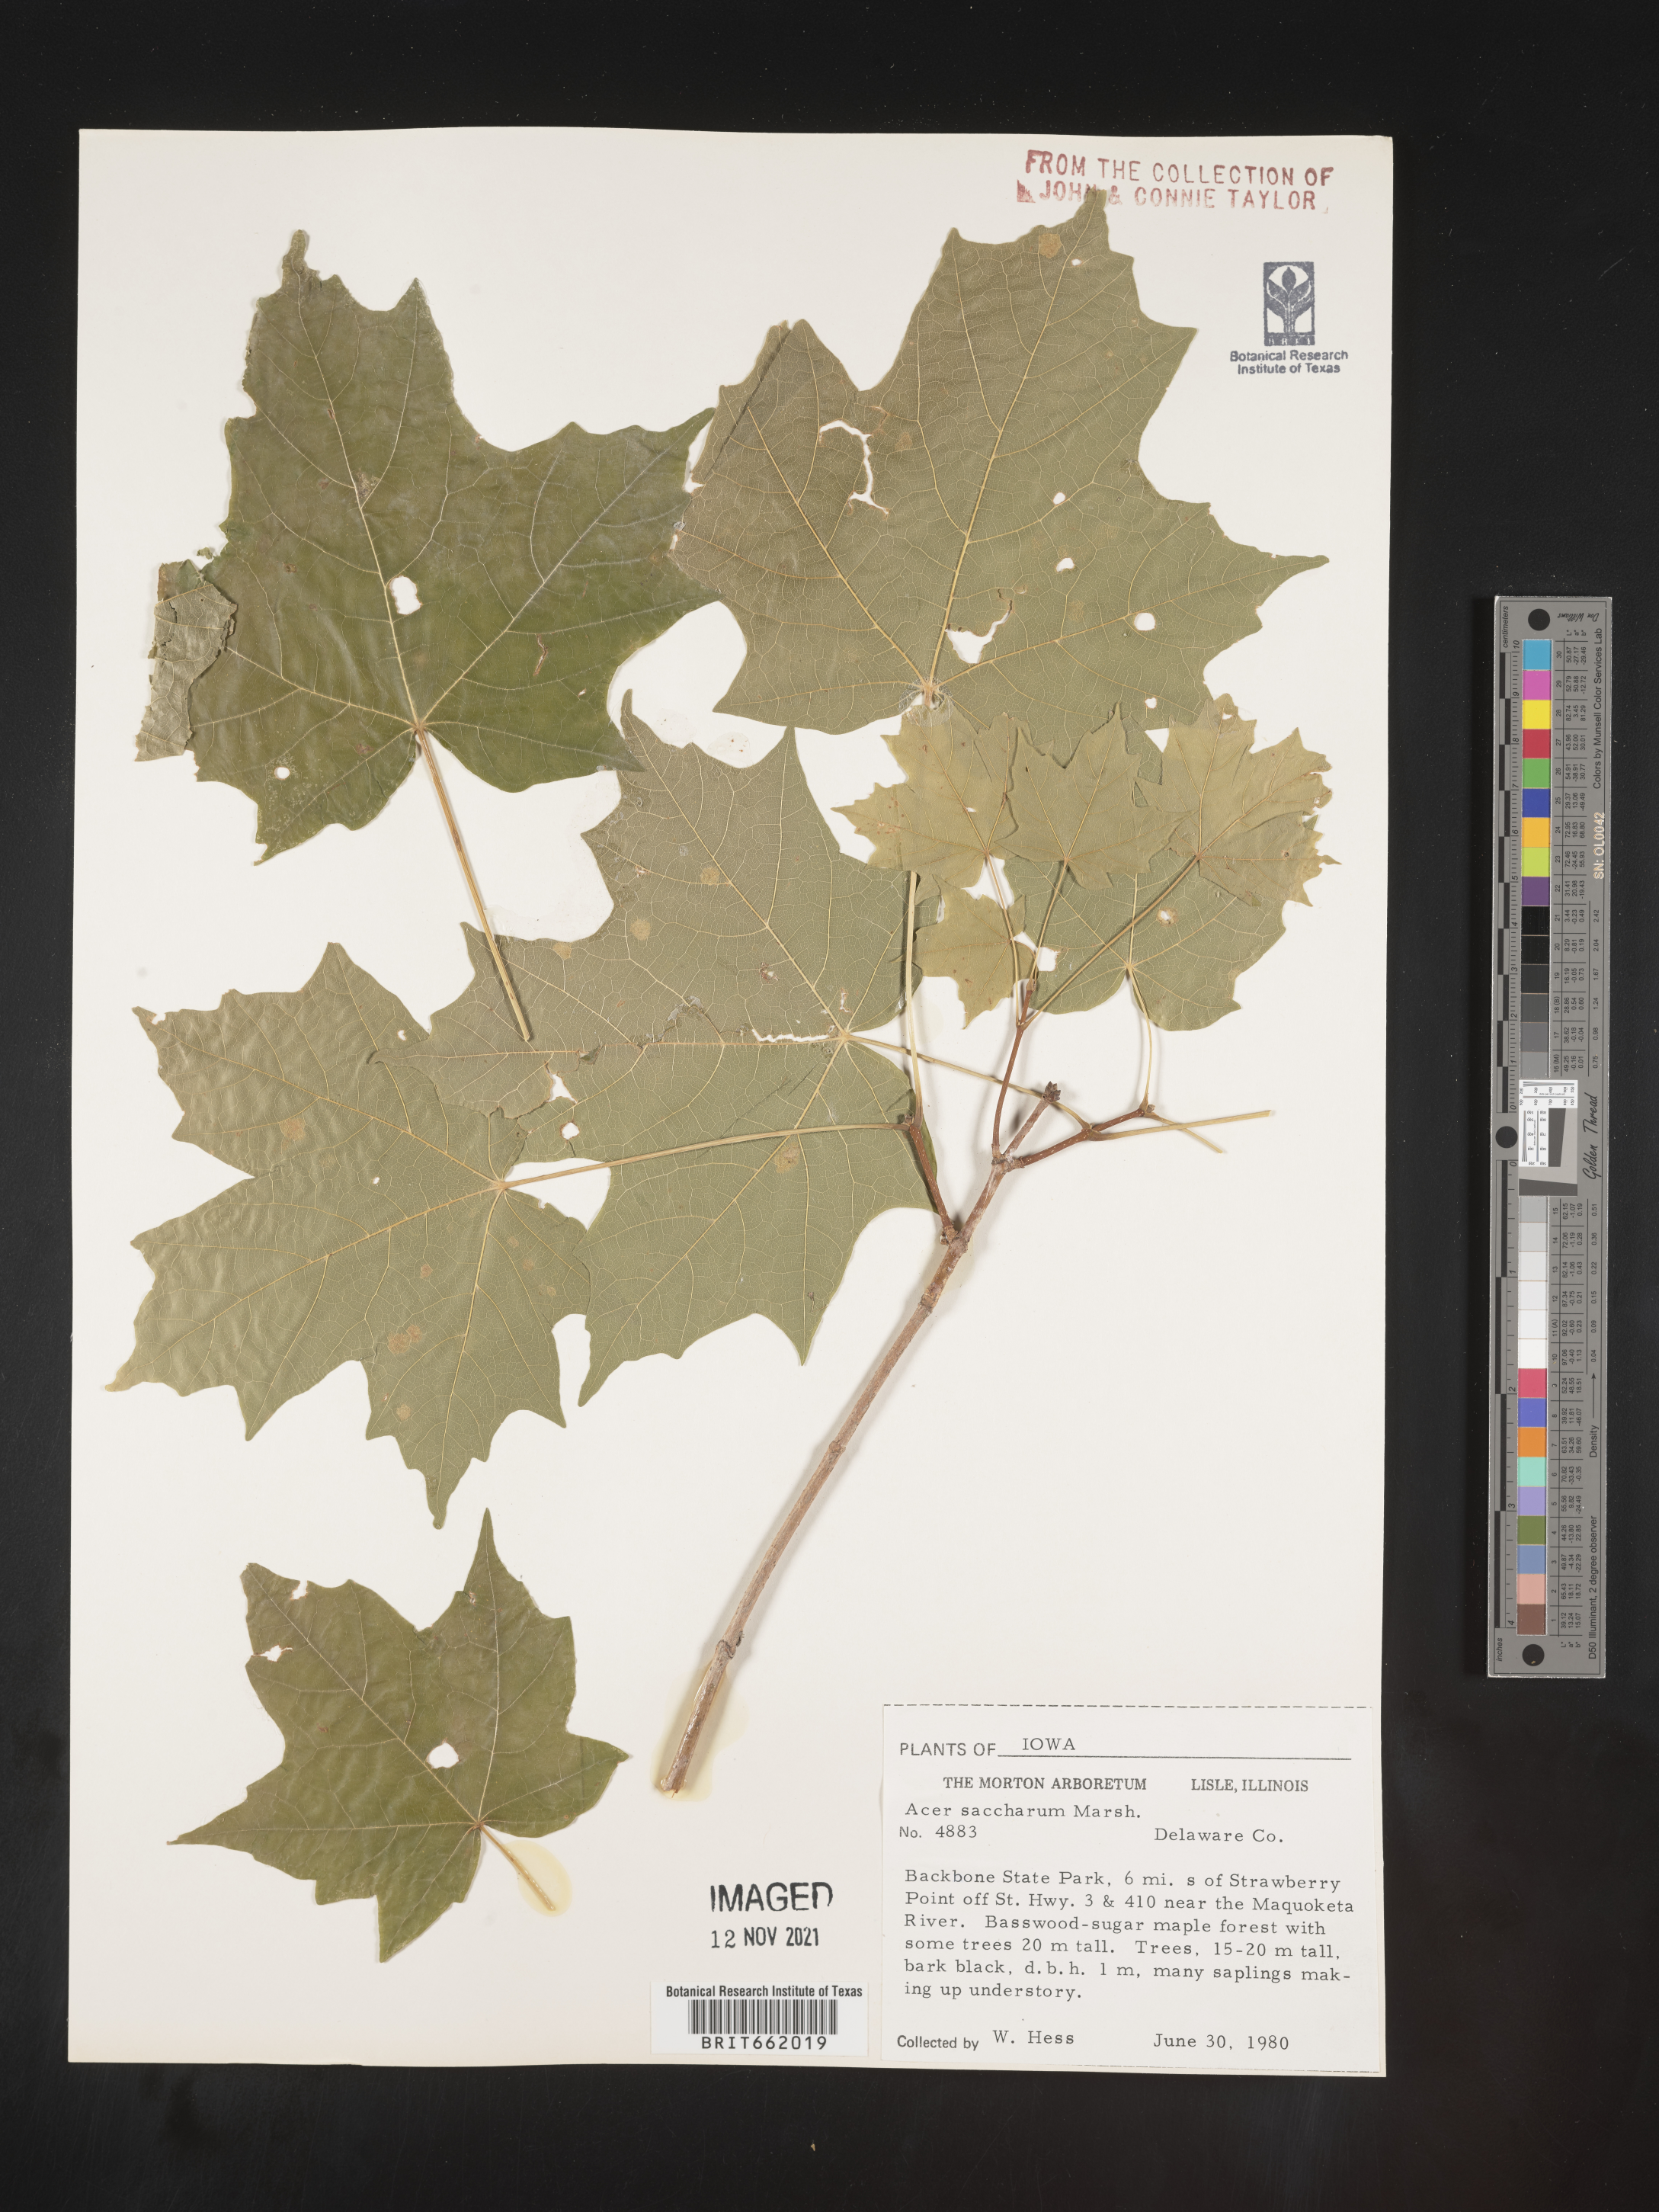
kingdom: Plantae
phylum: Tracheophyta
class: Magnoliopsida
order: Sapindales
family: Sapindaceae
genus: Acer
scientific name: Acer saccharum
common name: Sugar maple
